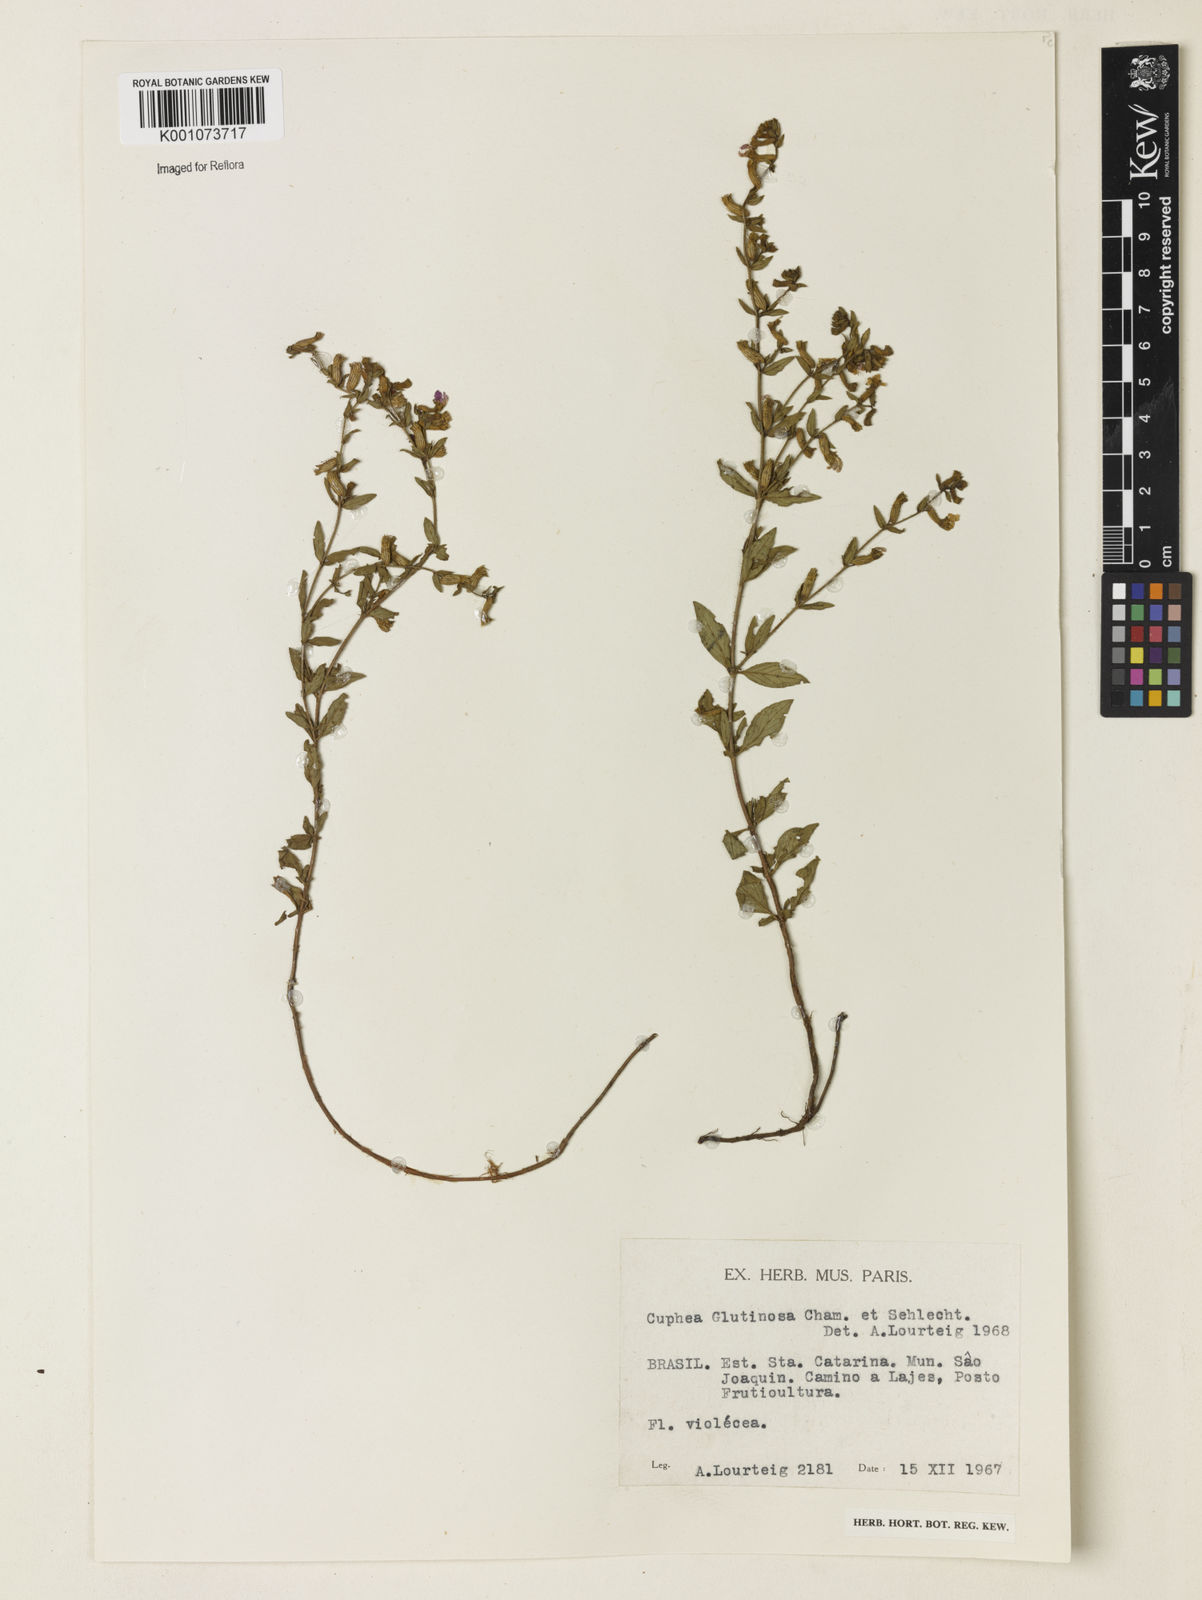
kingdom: Plantae
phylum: Tracheophyta
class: Magnoliopsida
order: Myrtales
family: Lythraceae
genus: Cuphea
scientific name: Cuphea glutinosa
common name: Sticky waxweed
